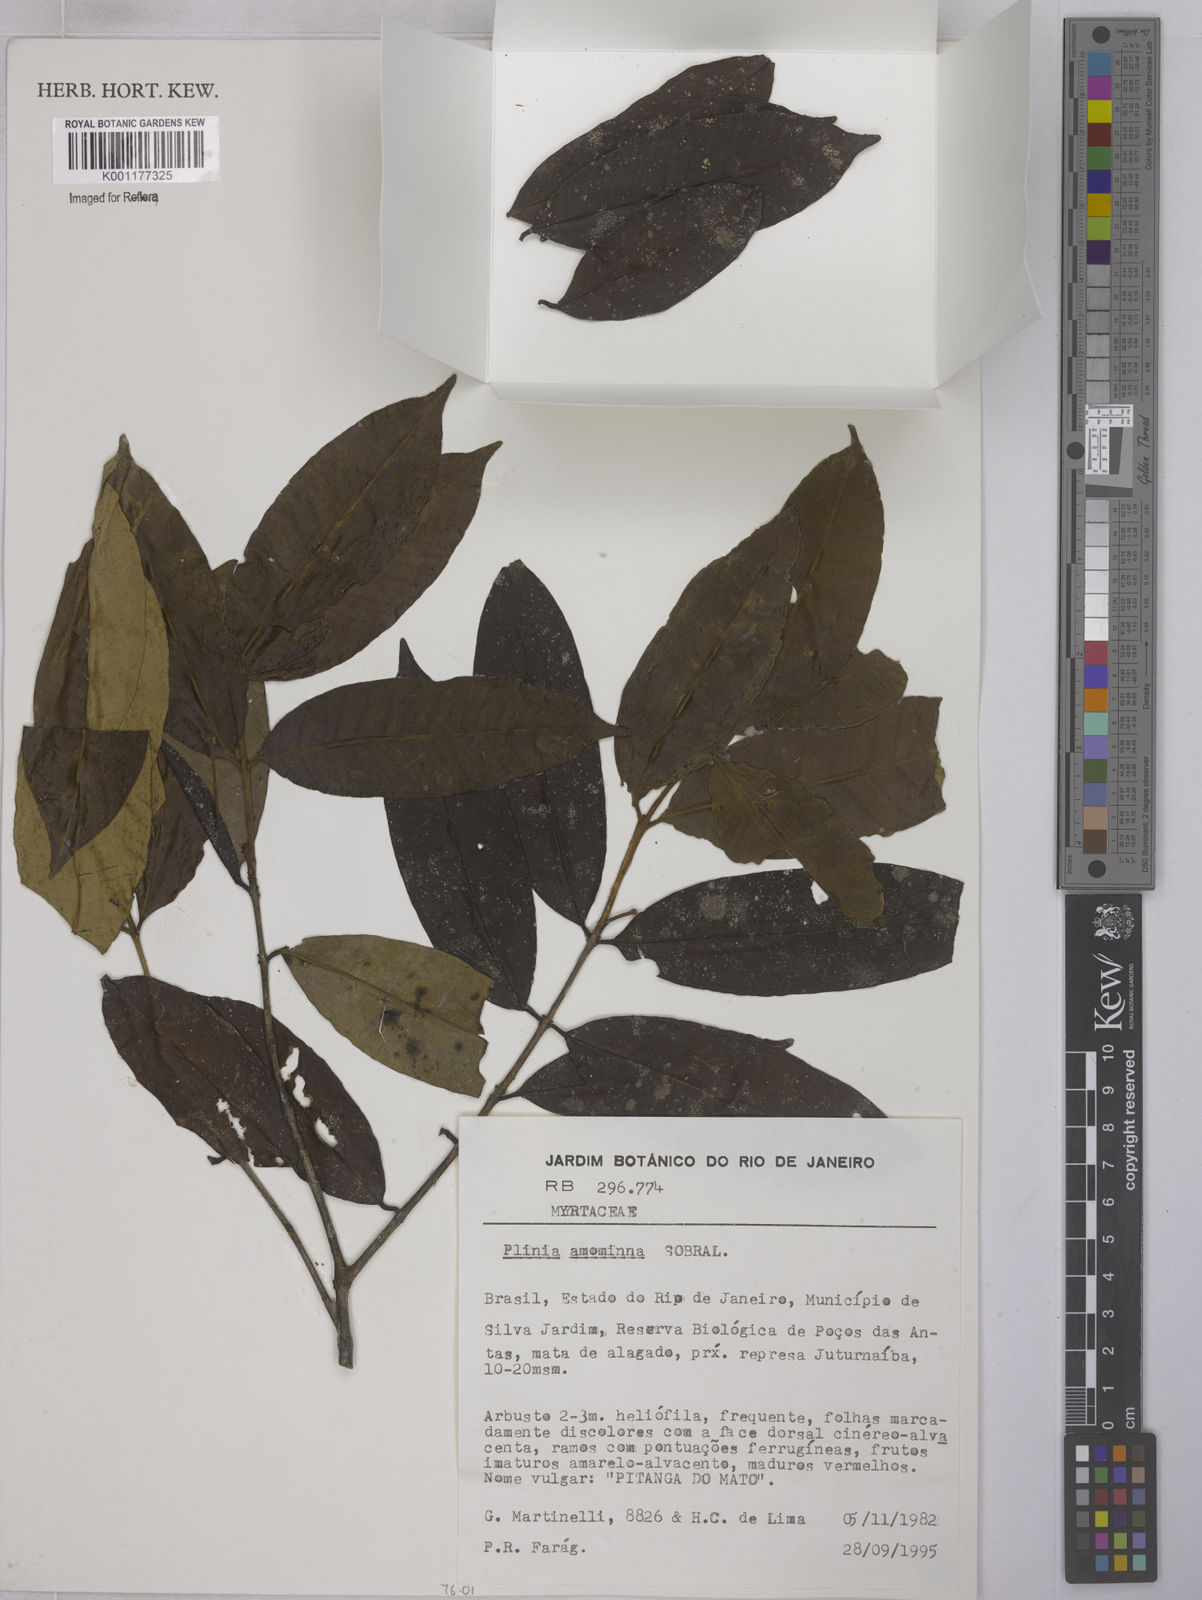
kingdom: Plantae
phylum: Tracheophyta
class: Magnoliopsida
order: Myrtales
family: Myrtaceae
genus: Eugenia
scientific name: Eugenia pisiformis
